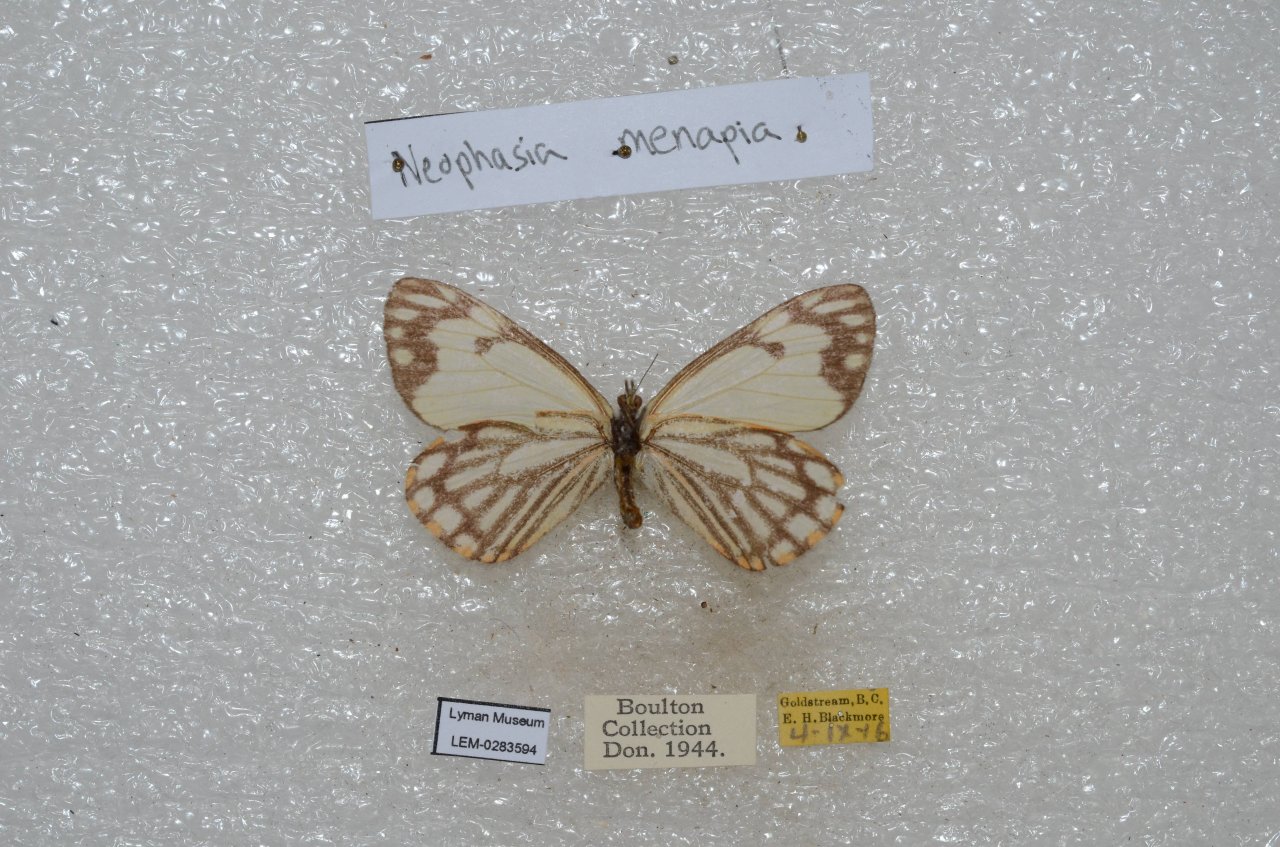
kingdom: Animalia
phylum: Arthropoda
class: Insecta
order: Lepidoptera
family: Pieridae
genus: Neophasia
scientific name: Neophasia menapia
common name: Pine White
